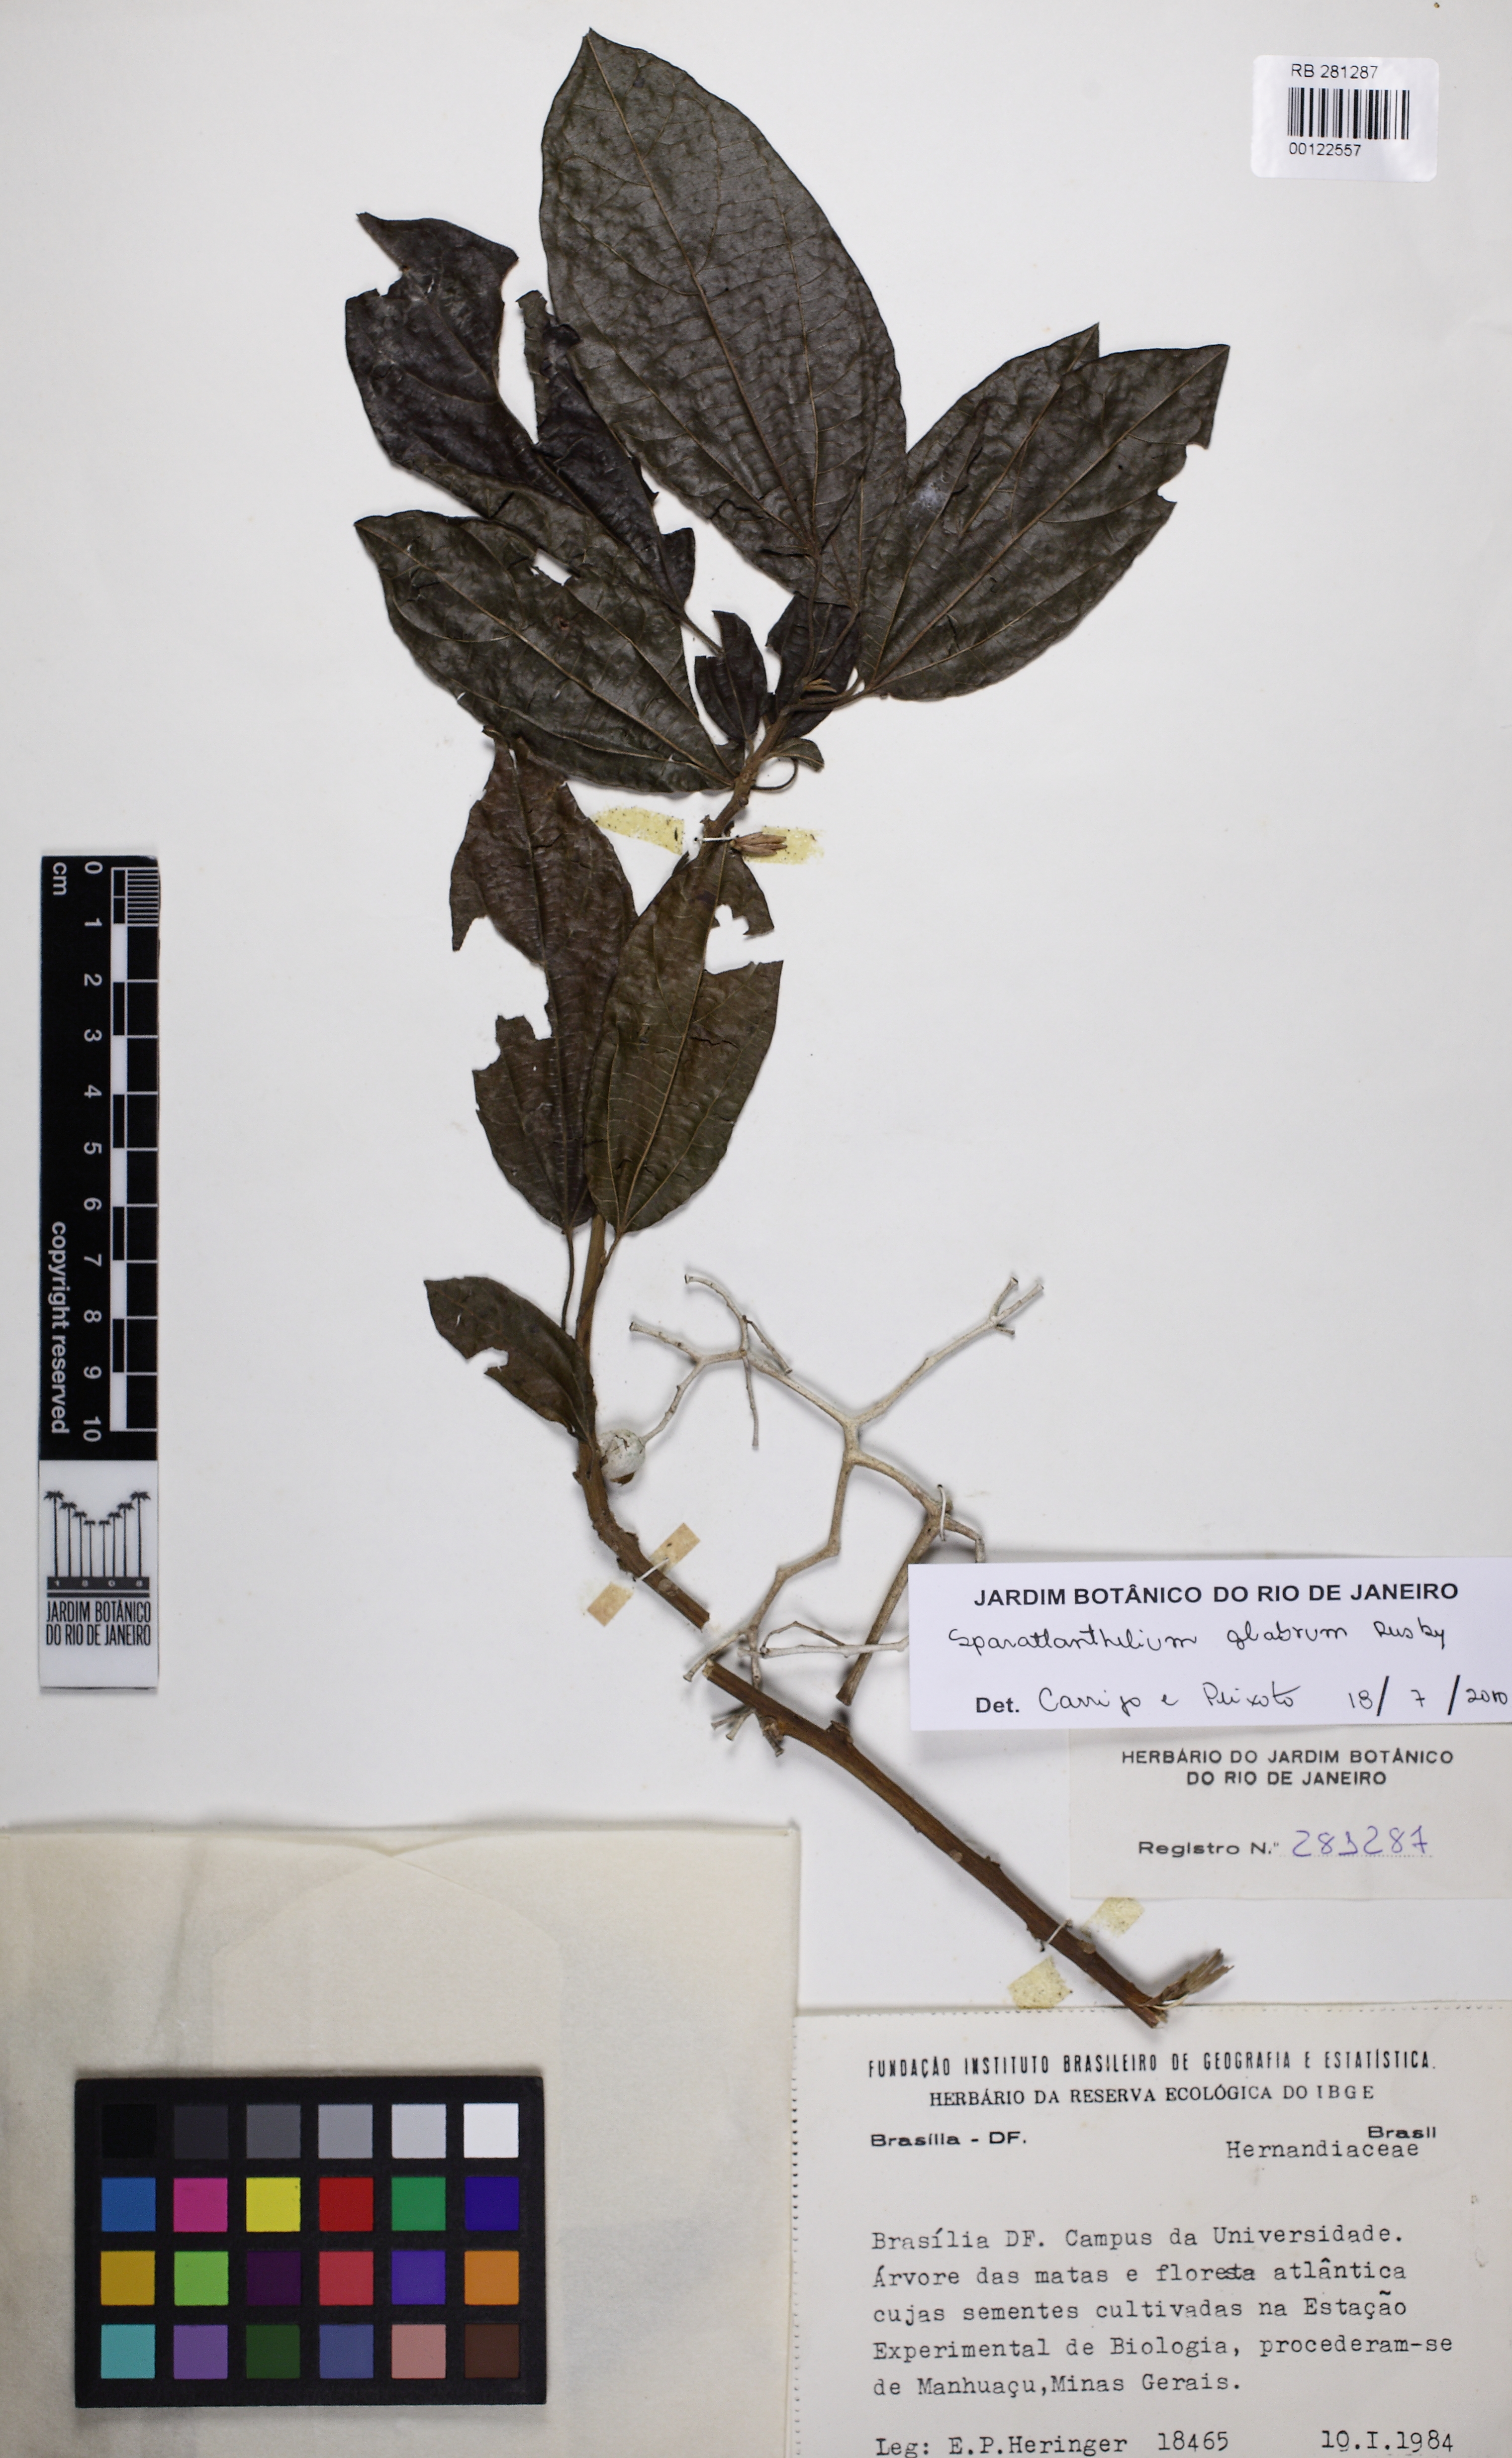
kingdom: Plantae
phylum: Tracheophyta
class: Magnoliopsida
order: Laurales
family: Hernandiaceae
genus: Sparattanthelium
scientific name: Sparattanthelium glabrum
